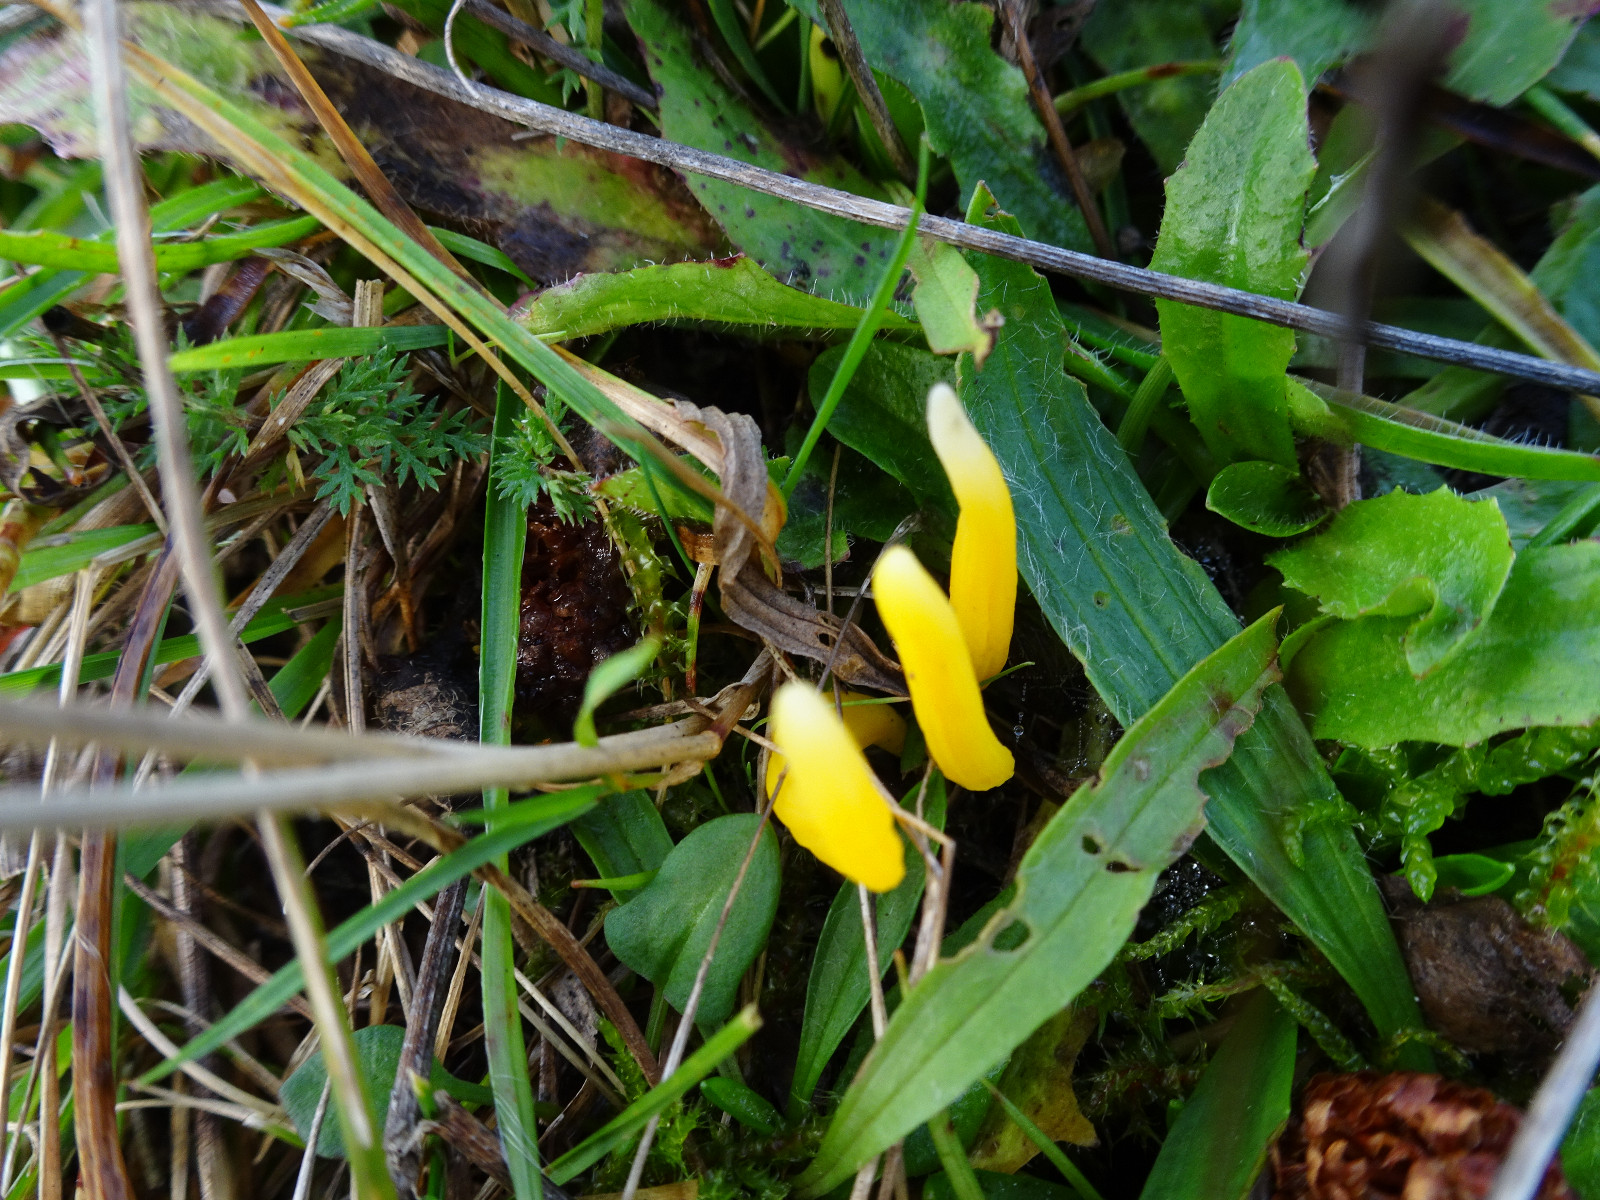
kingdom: Fungi
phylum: Basidiomycota
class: Agaricomycetes
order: Agaricales
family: Clavariaceae
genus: Clavulinopsis
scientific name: Clavulinopsis
